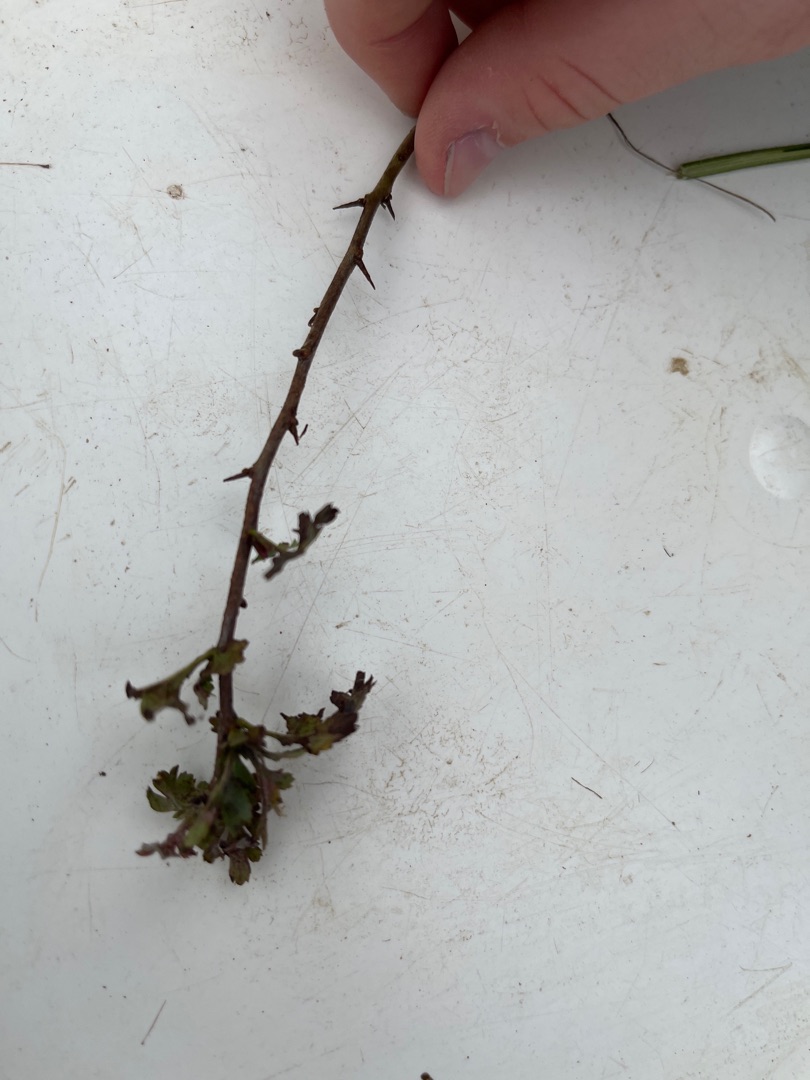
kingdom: Plantae
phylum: Tracheophyta
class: Magnoliopsida
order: Rosales
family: Rosaceae
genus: Crataegus
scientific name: Crataegus monogyna
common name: Engriflet hvidtjørn
